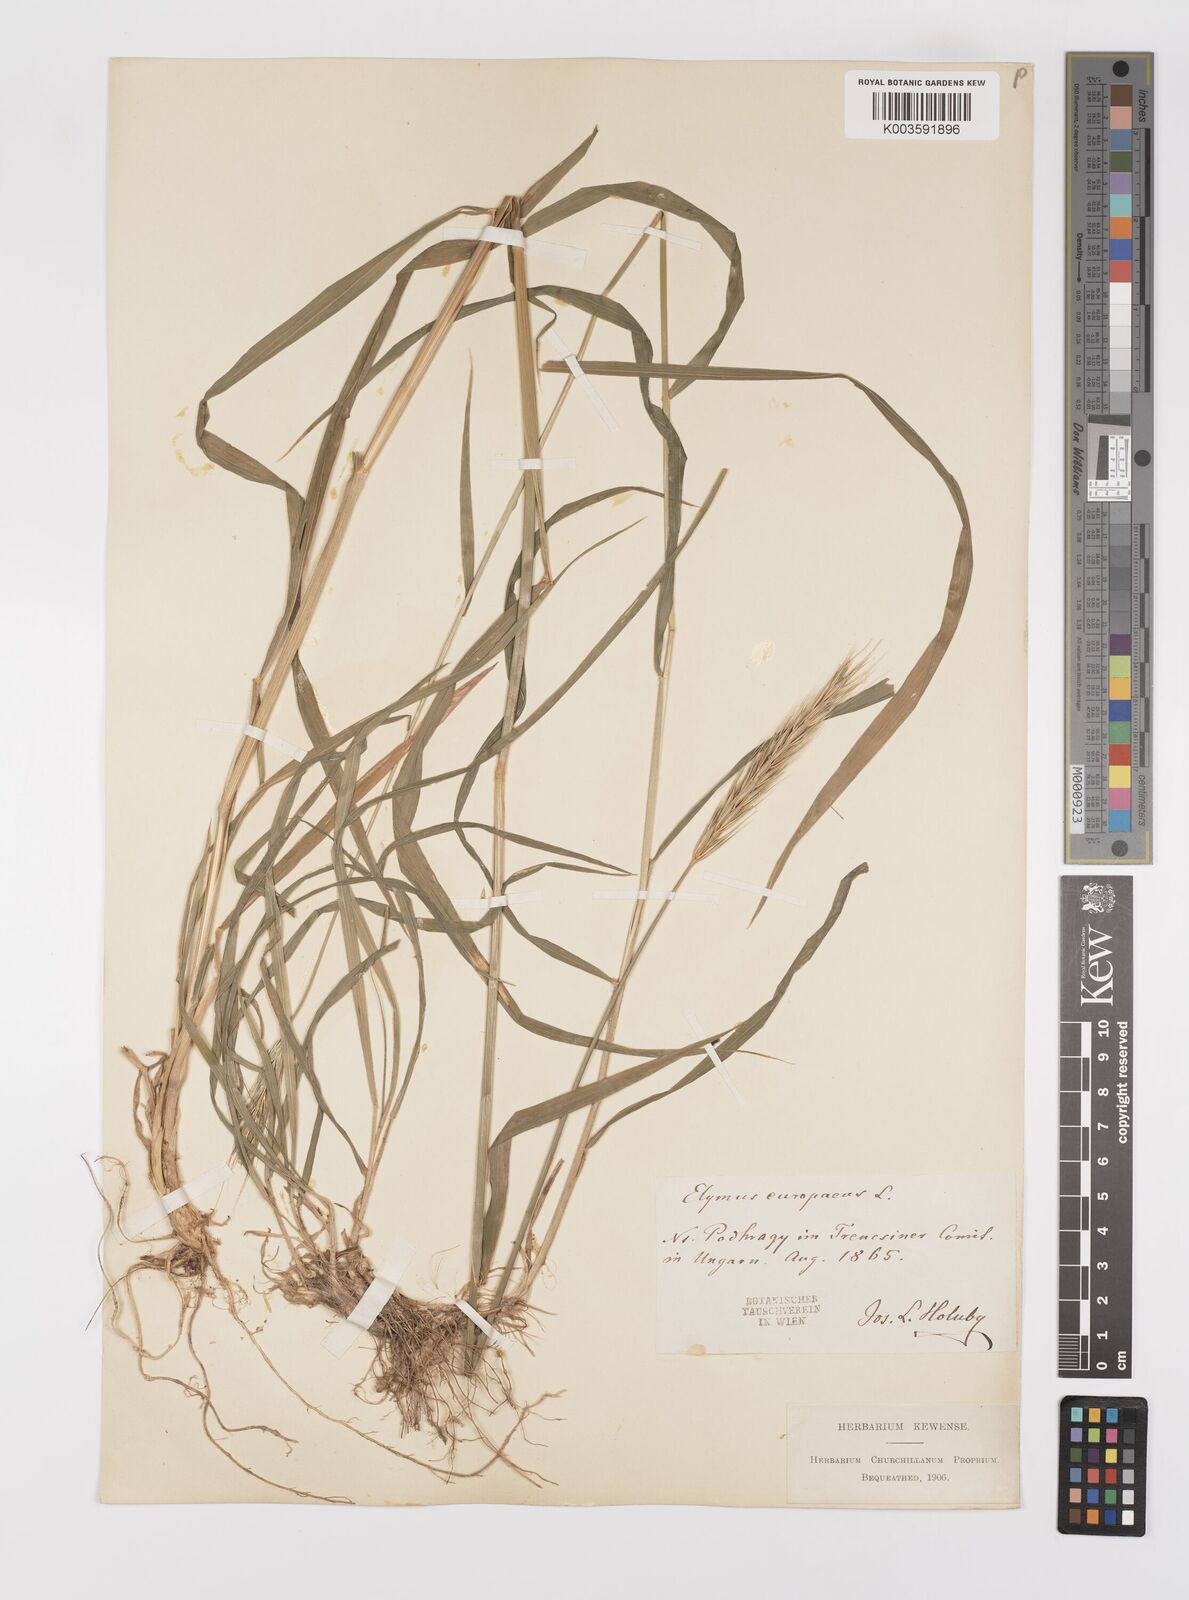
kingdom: Plantae
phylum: Tracheophyta
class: Liliopsida
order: Poales
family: Poaceae
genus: Hordelymus
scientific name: Hordelymus europaeus
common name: Wood-barley
